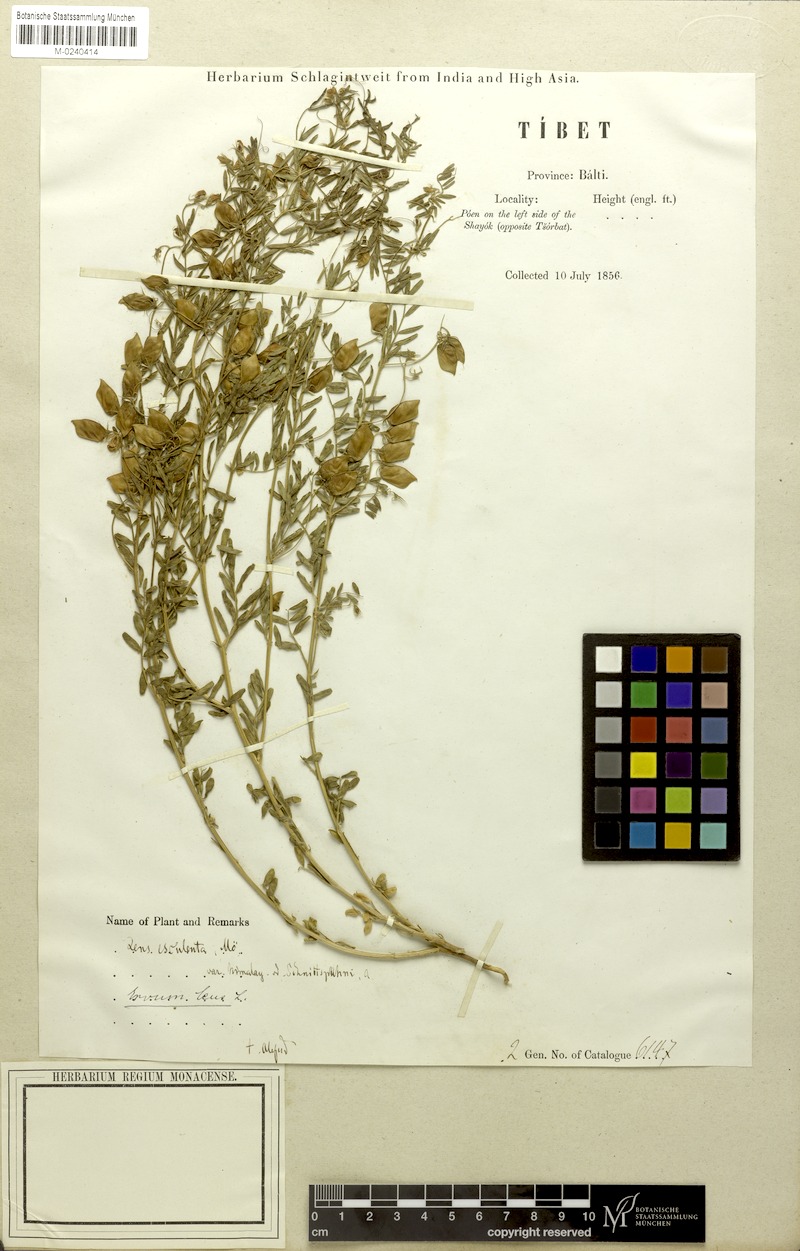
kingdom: Plantae
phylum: Tracheophyta
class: Magnoliopsida
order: Fabales
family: Fabaceae
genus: Vicia
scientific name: Vicia lens
